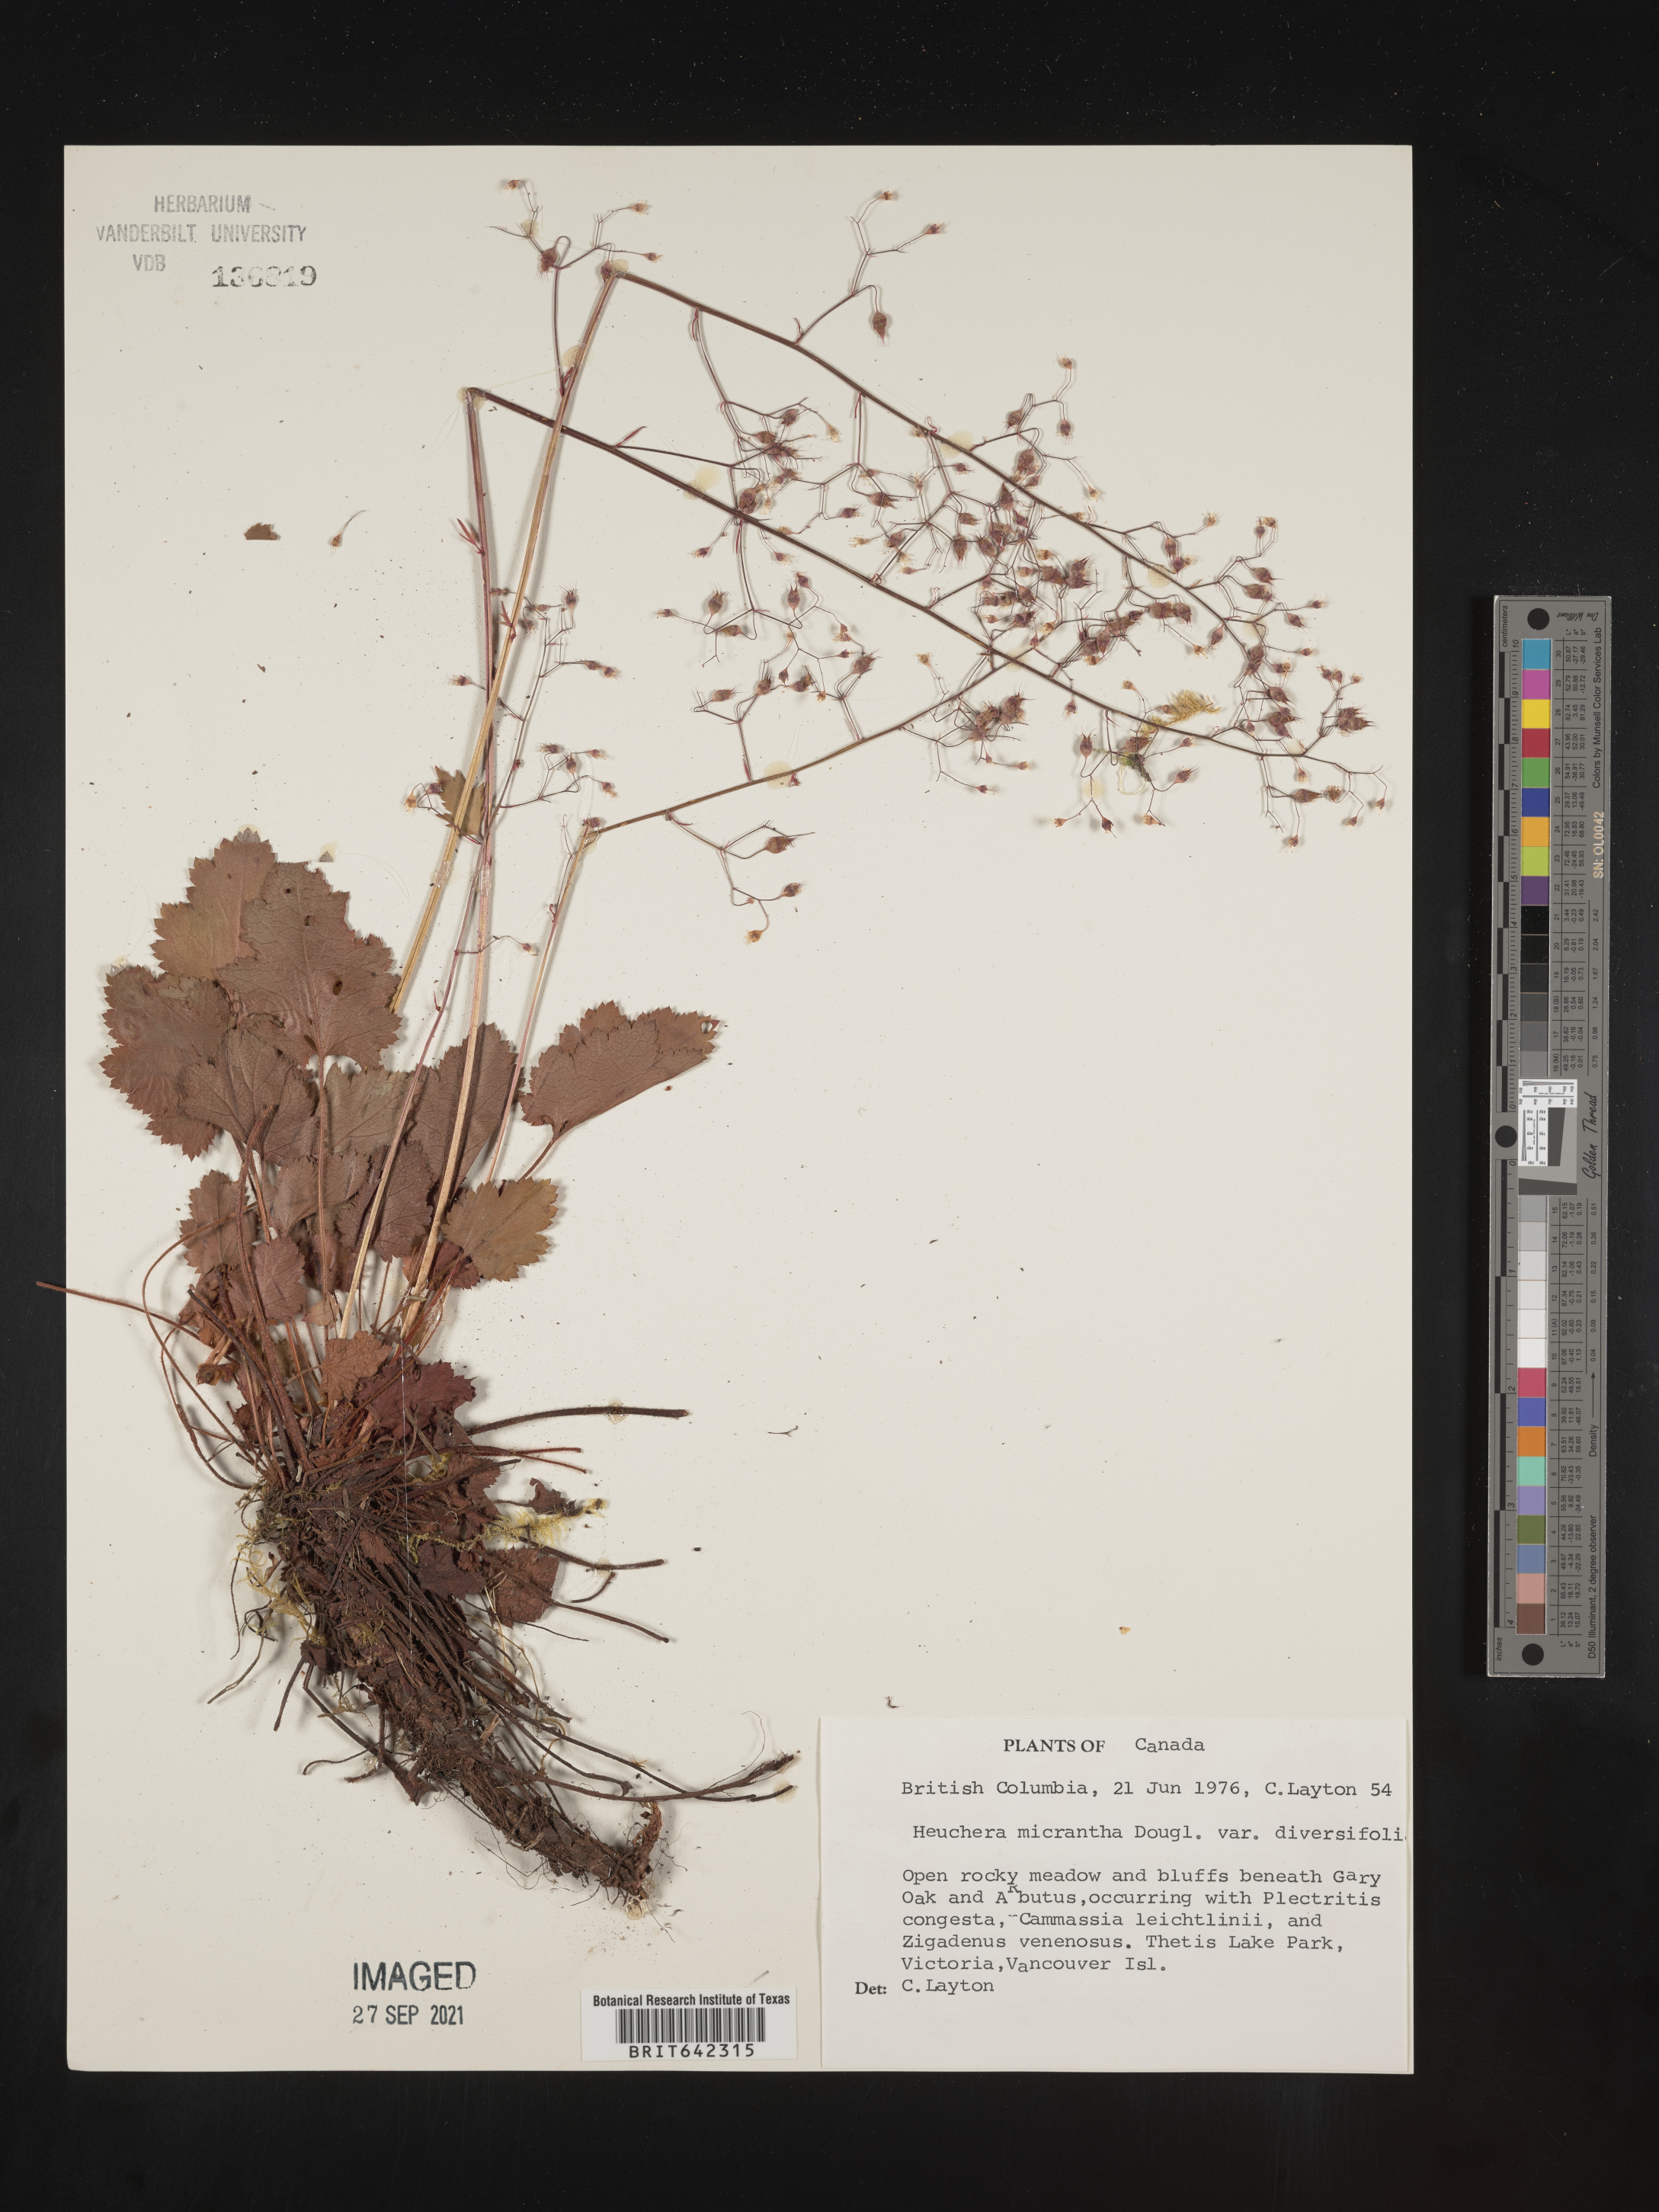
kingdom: Plantae
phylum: Tracheophyta
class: Magnoliopsida
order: Saxifragales
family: Saxifragaceae
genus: Heuchera
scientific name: Heuchera
